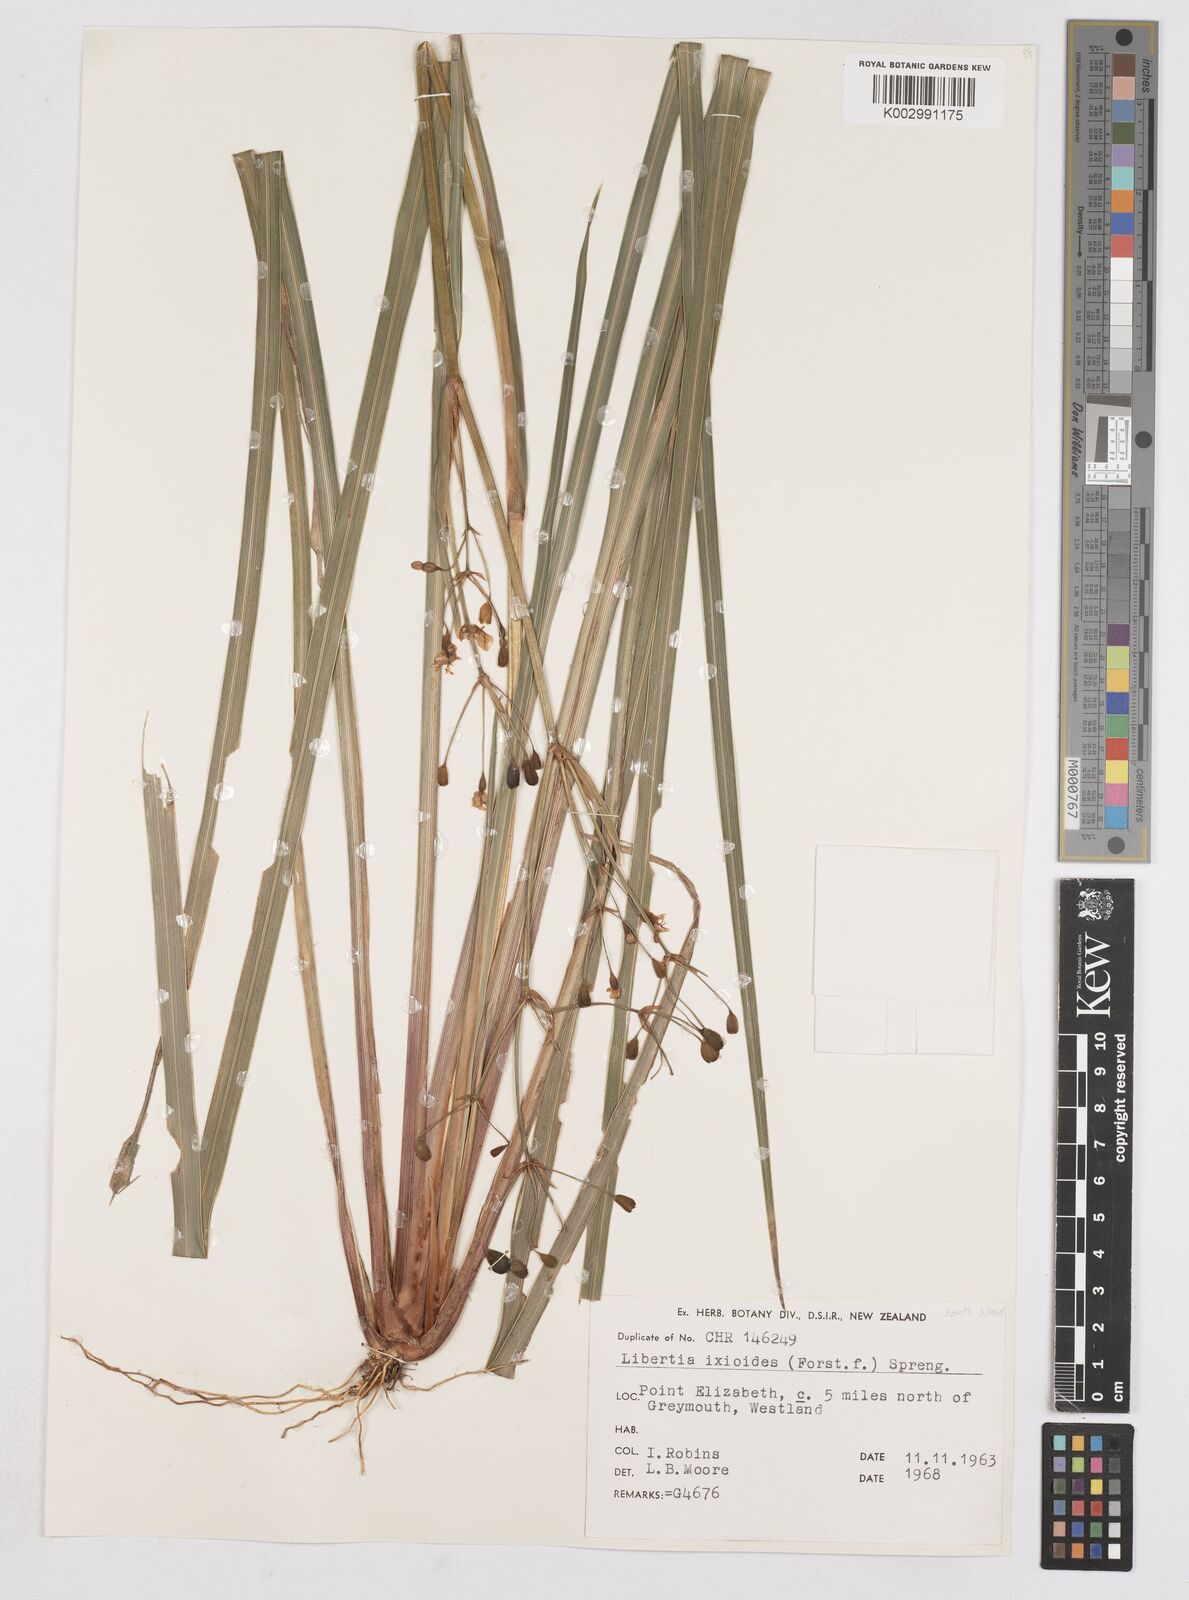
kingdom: Plantae
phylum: Tracheophyta
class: Liliopsida
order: Asparagales
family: Iridaceae
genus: Libertia
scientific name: Libertia ixioides
